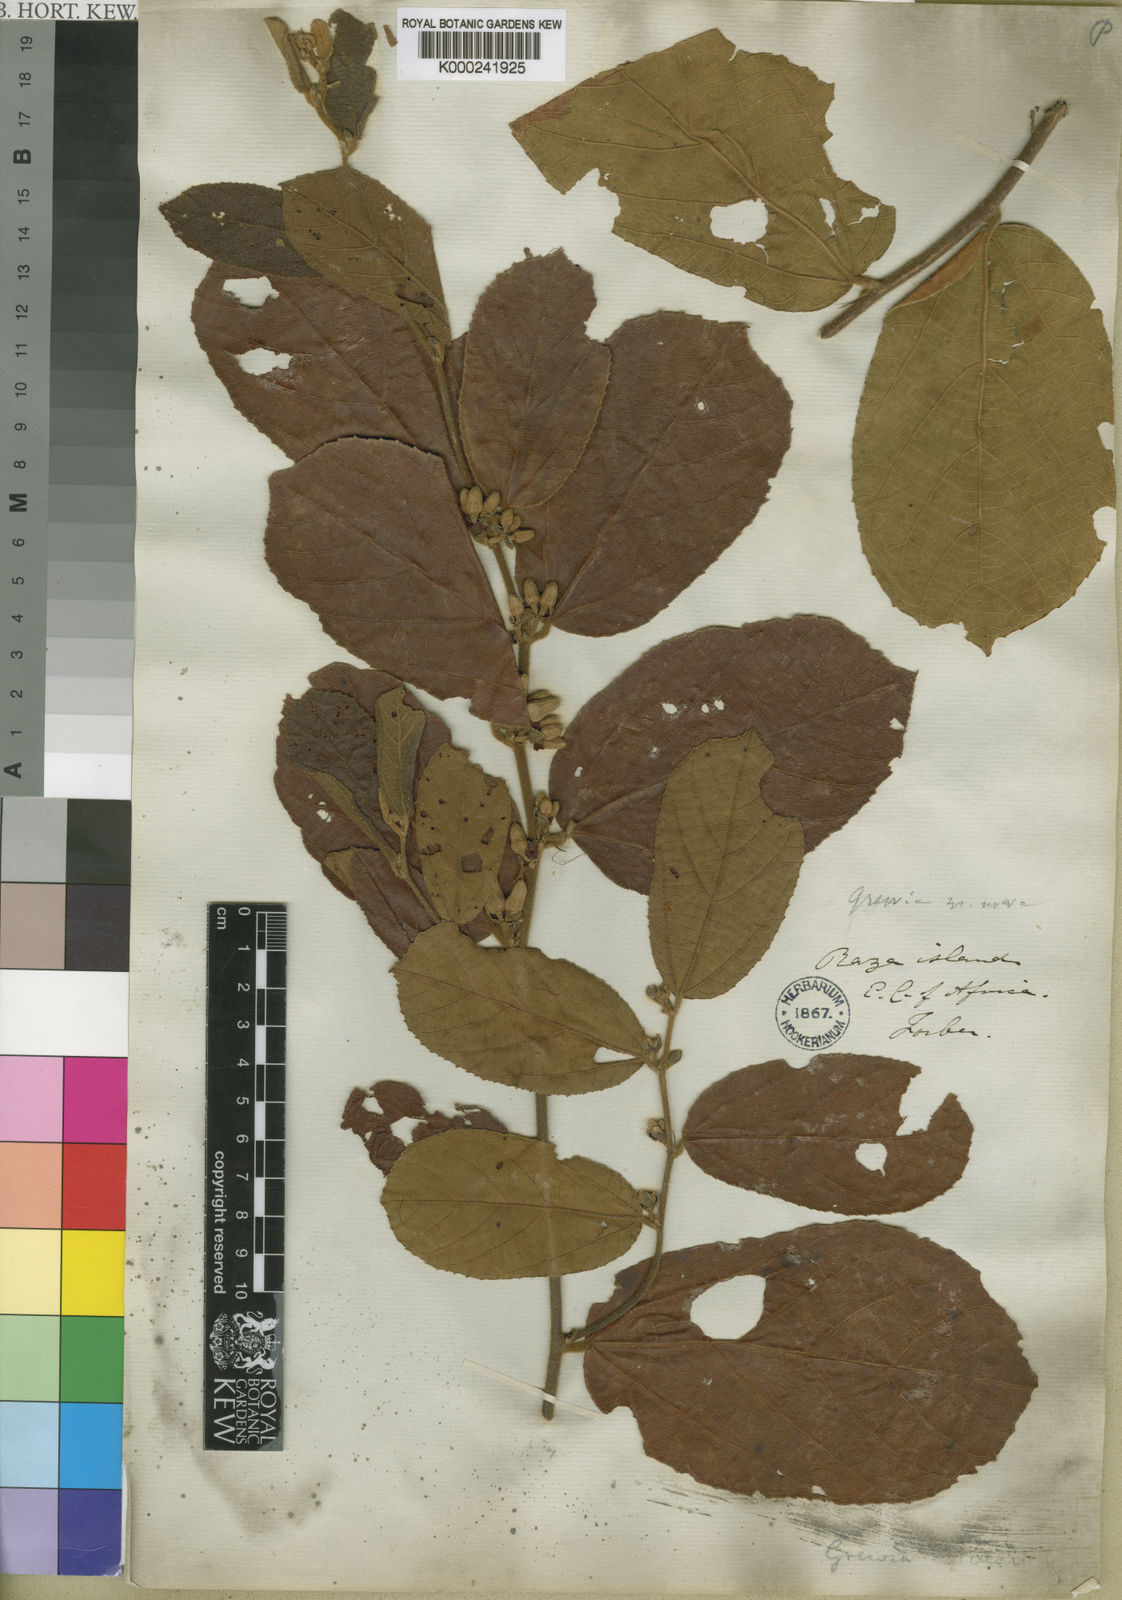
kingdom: Plantae
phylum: Tracheophyta
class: Magnoliopsida
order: Malvales
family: Malvaceae
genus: Grewia
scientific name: Grewia forbesii
